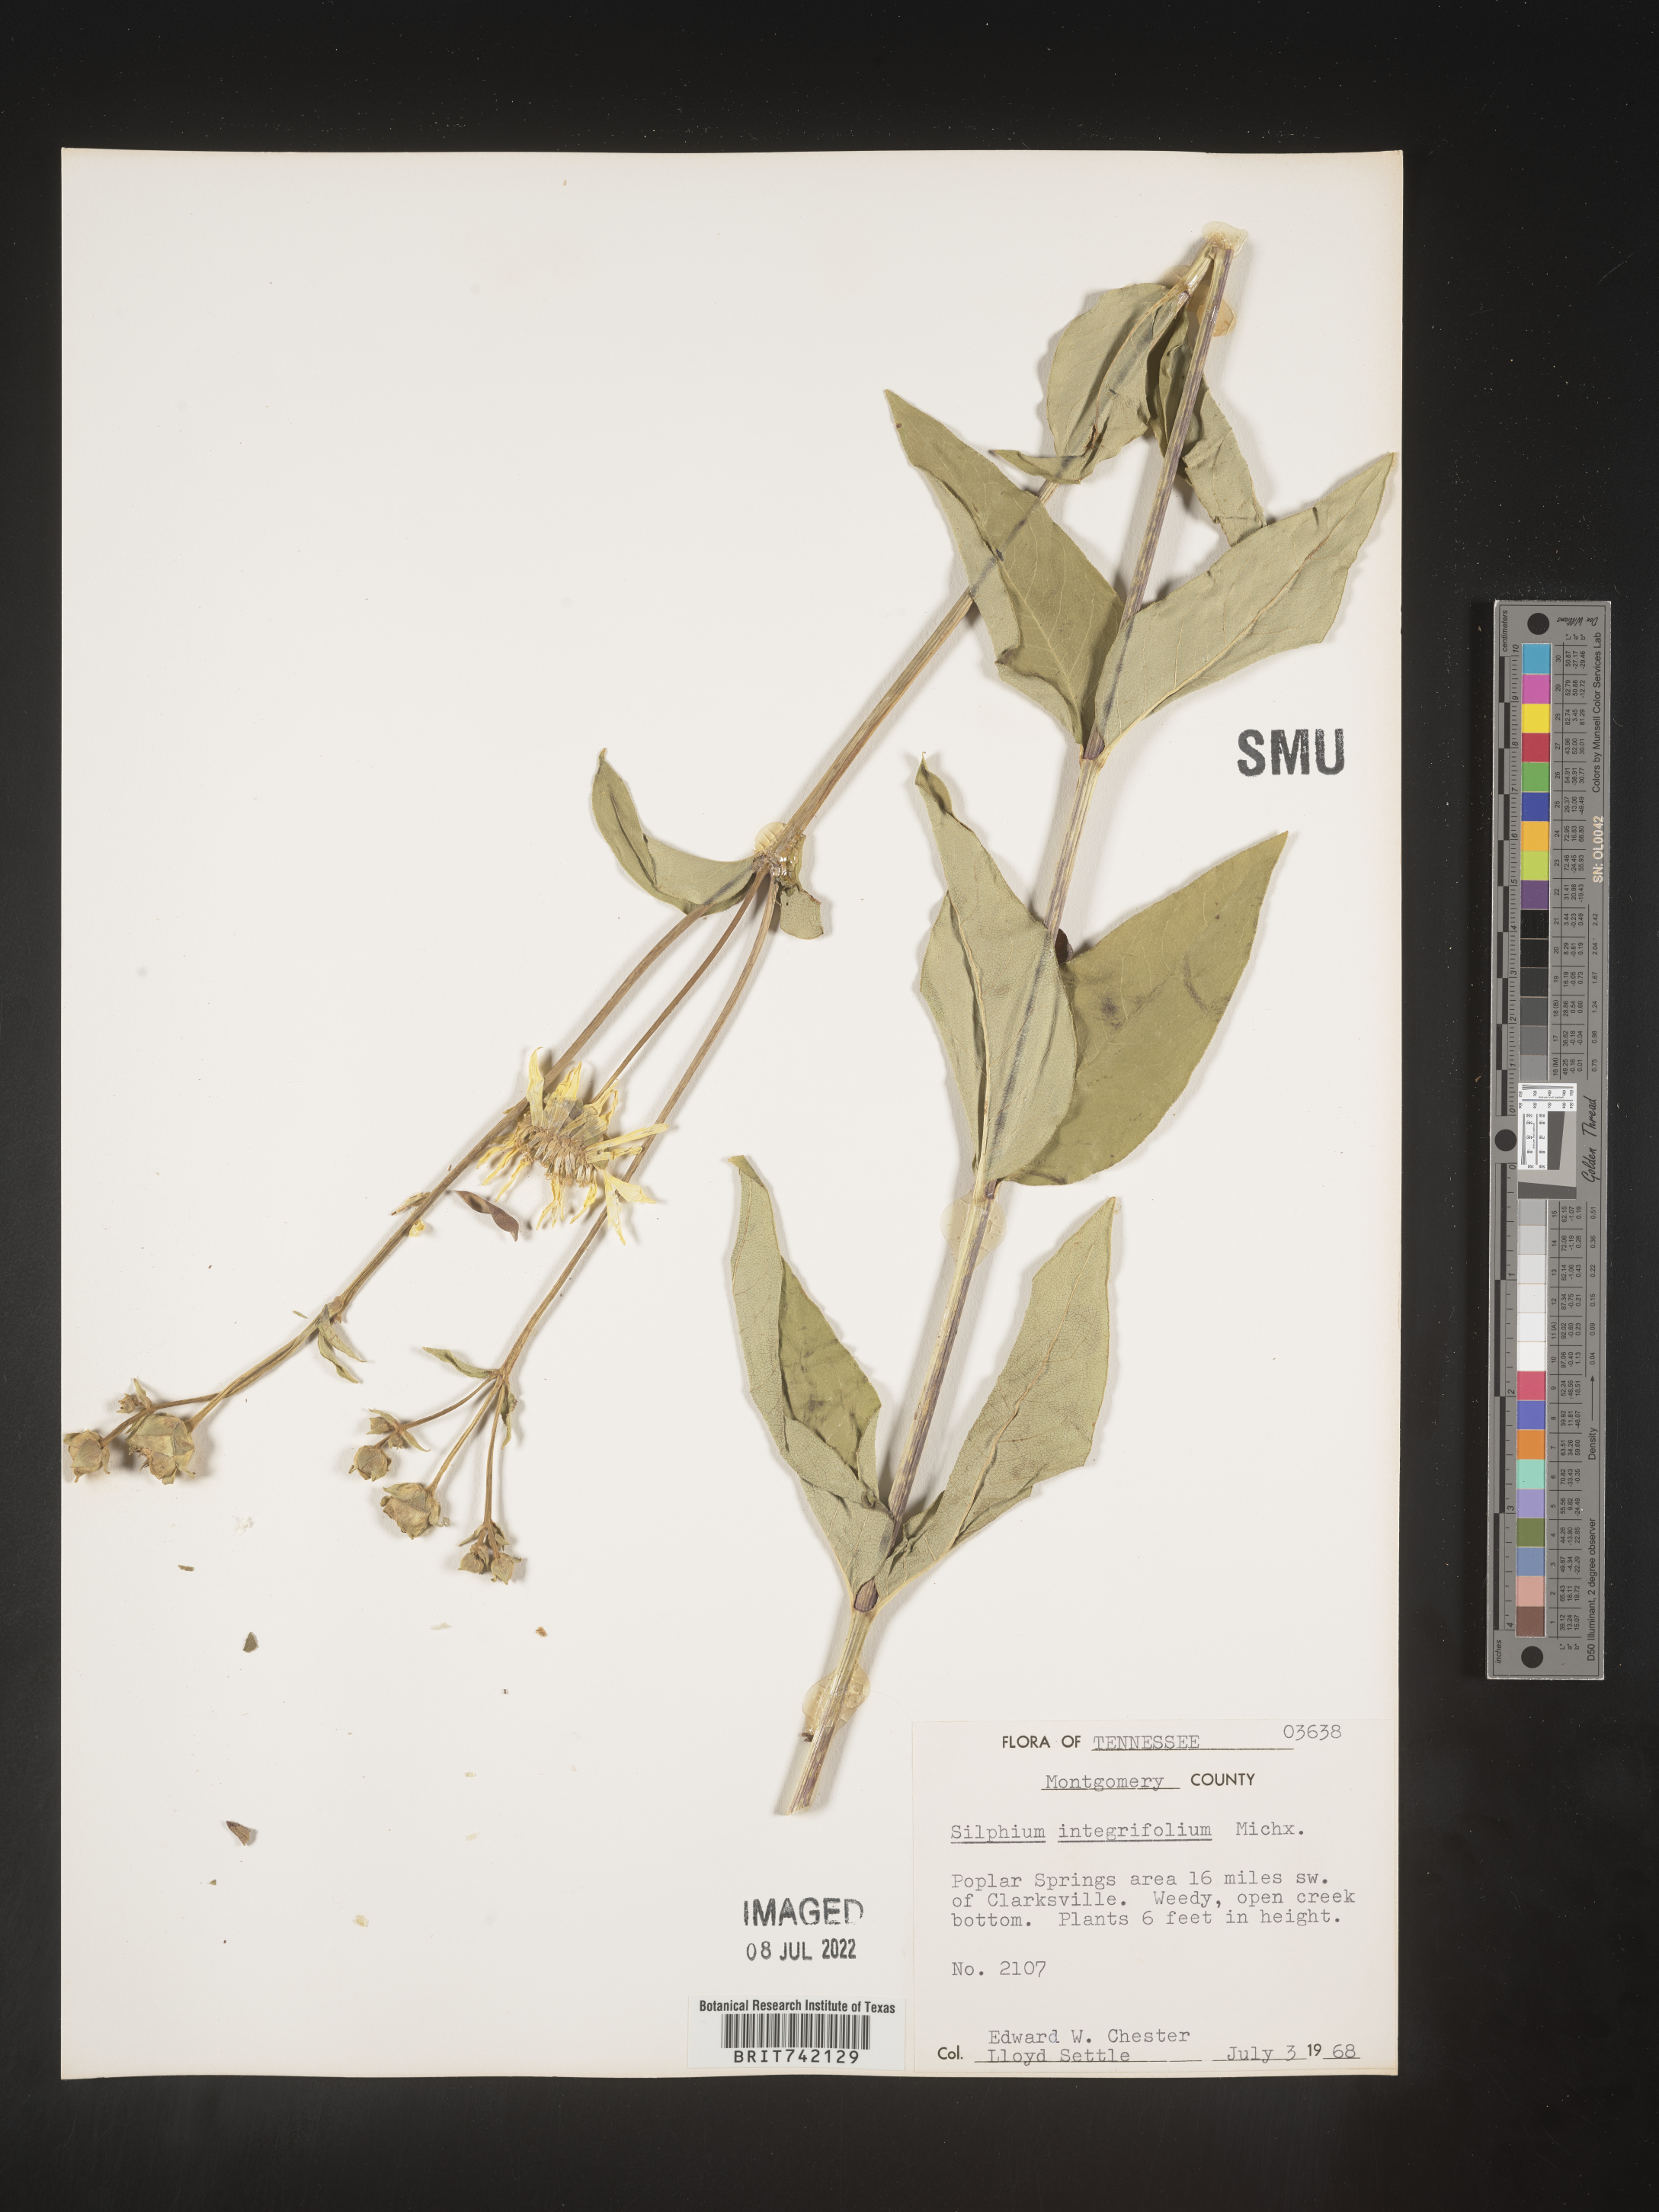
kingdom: Plantae
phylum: Tracheophyta
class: Magnoliopsida
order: Asterales
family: Asteraceae
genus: Silphium
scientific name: Silphium glabrum
